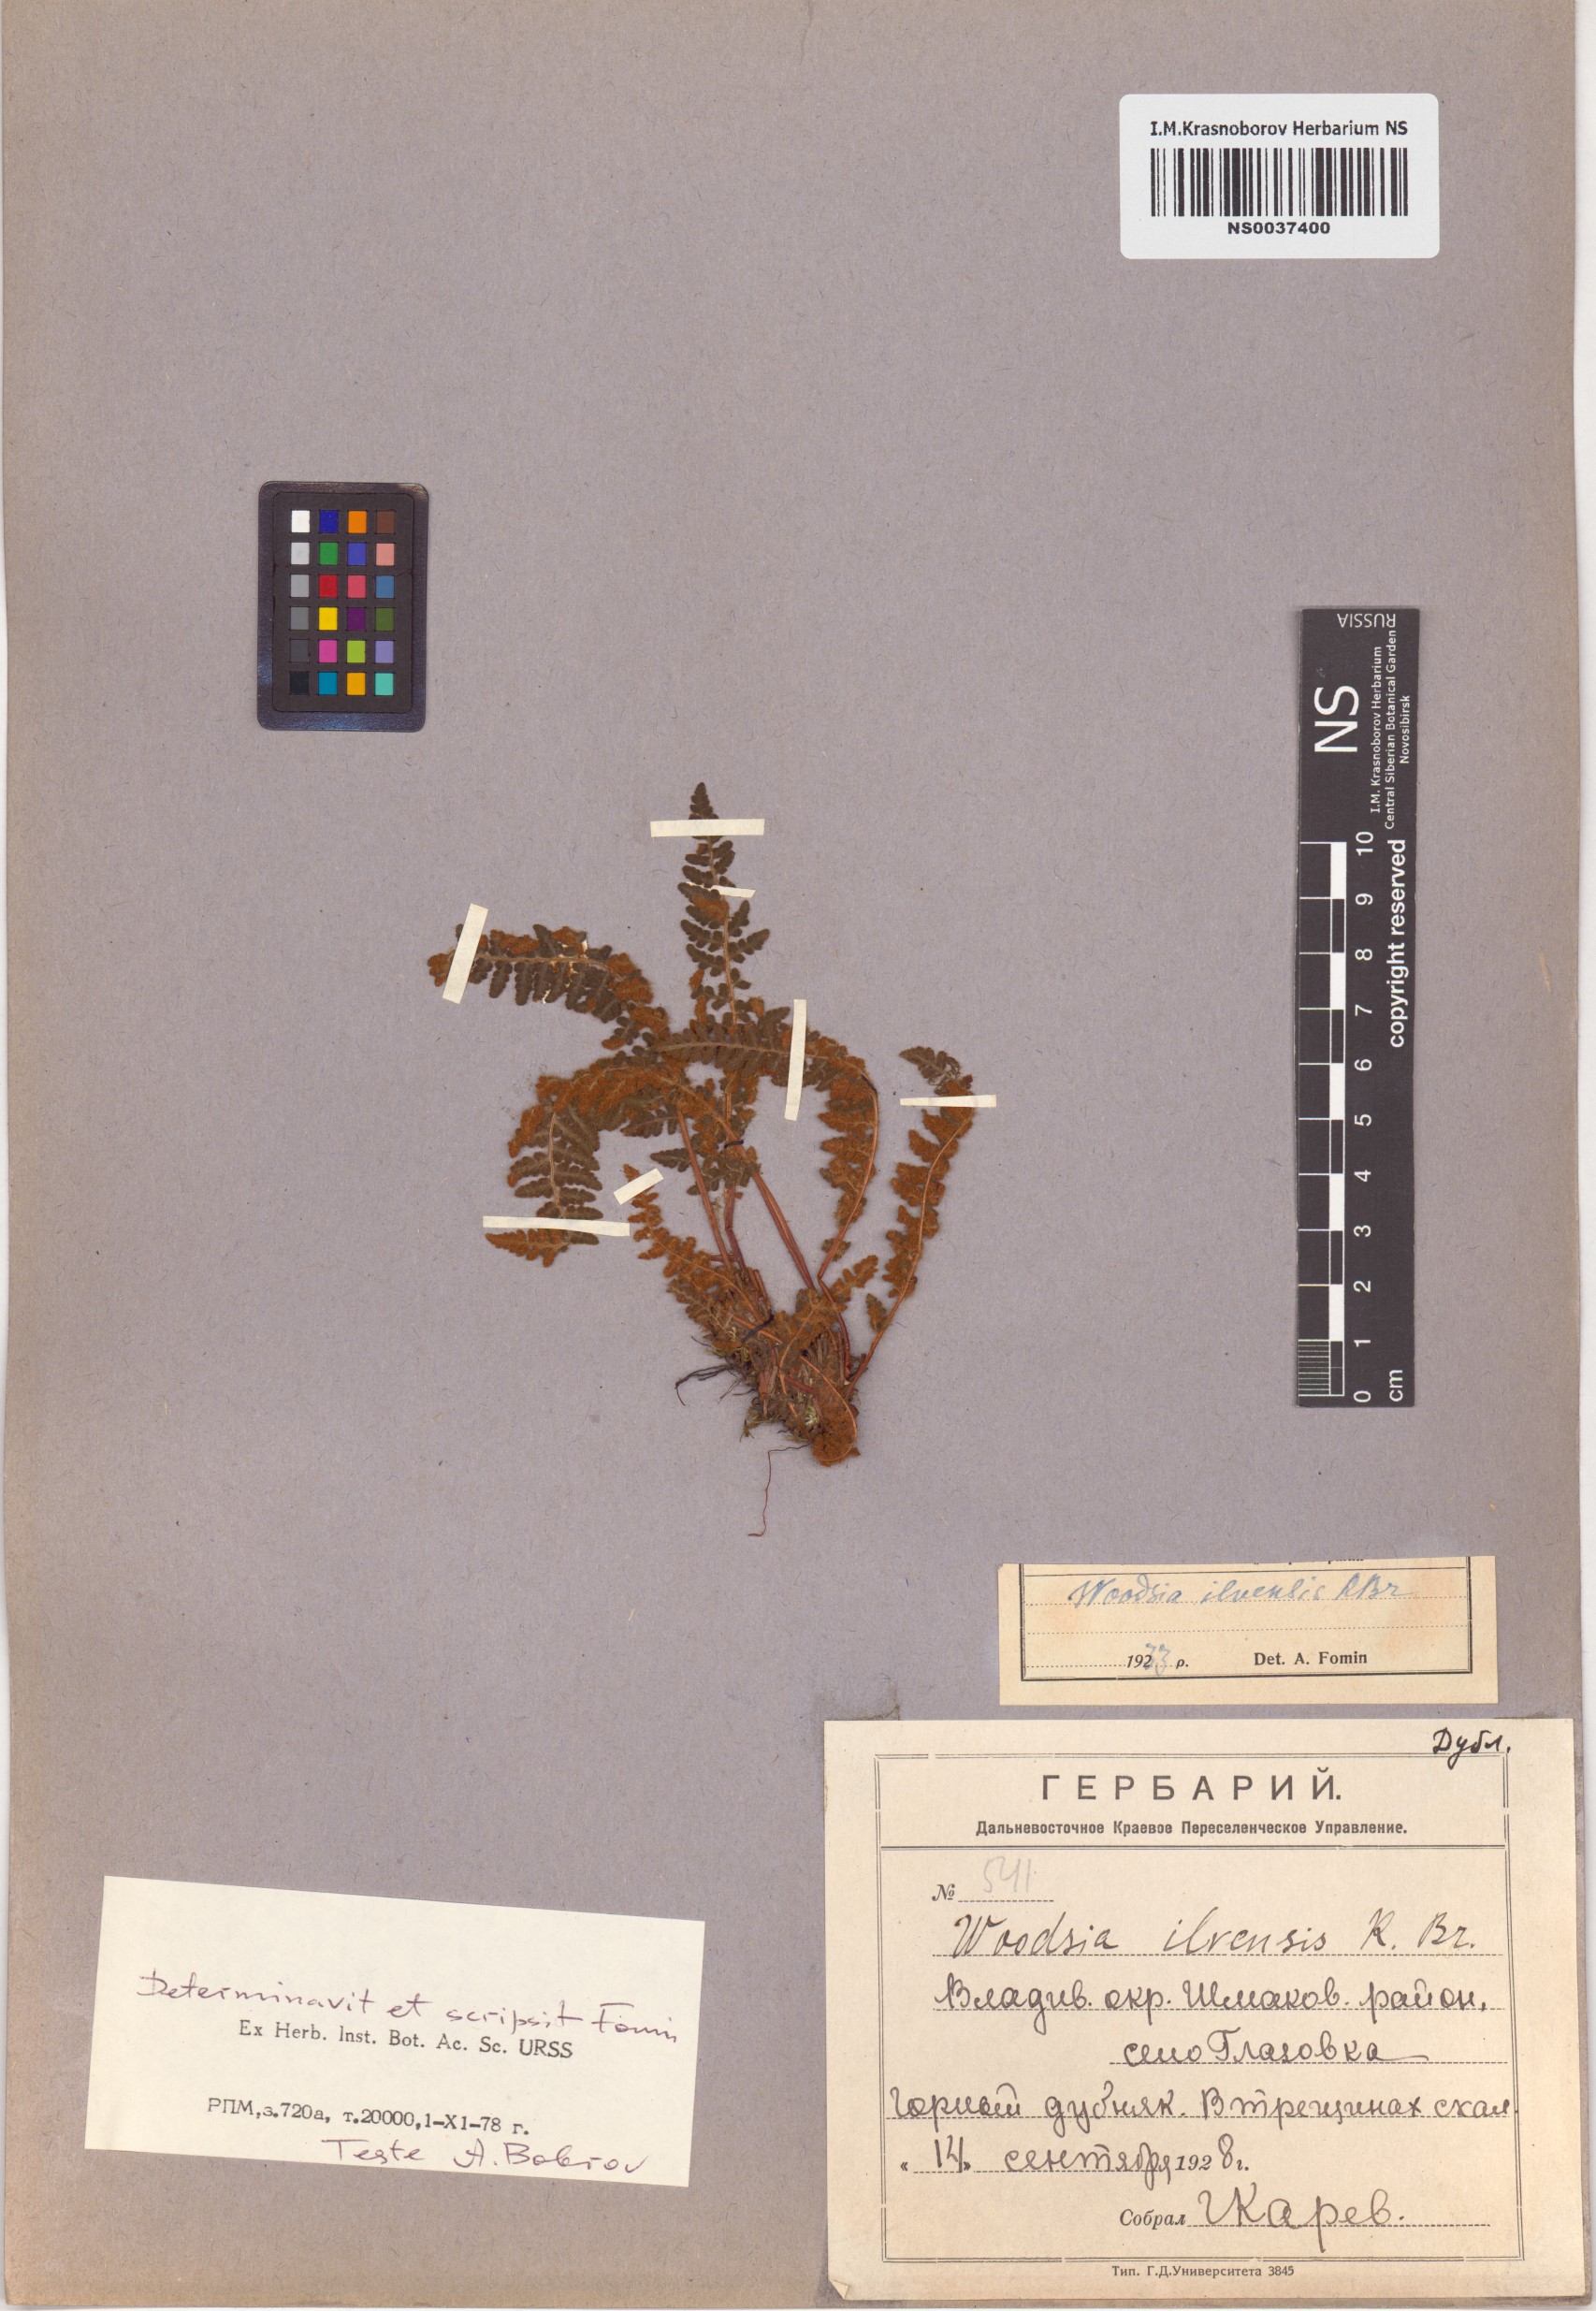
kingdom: Plantae
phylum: Tracheophyta
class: Polypodiopsida
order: Polypodiales
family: Woodsiaceae
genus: Woodsia
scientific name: Woodsia ilvensis
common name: Fragrant woodsia
